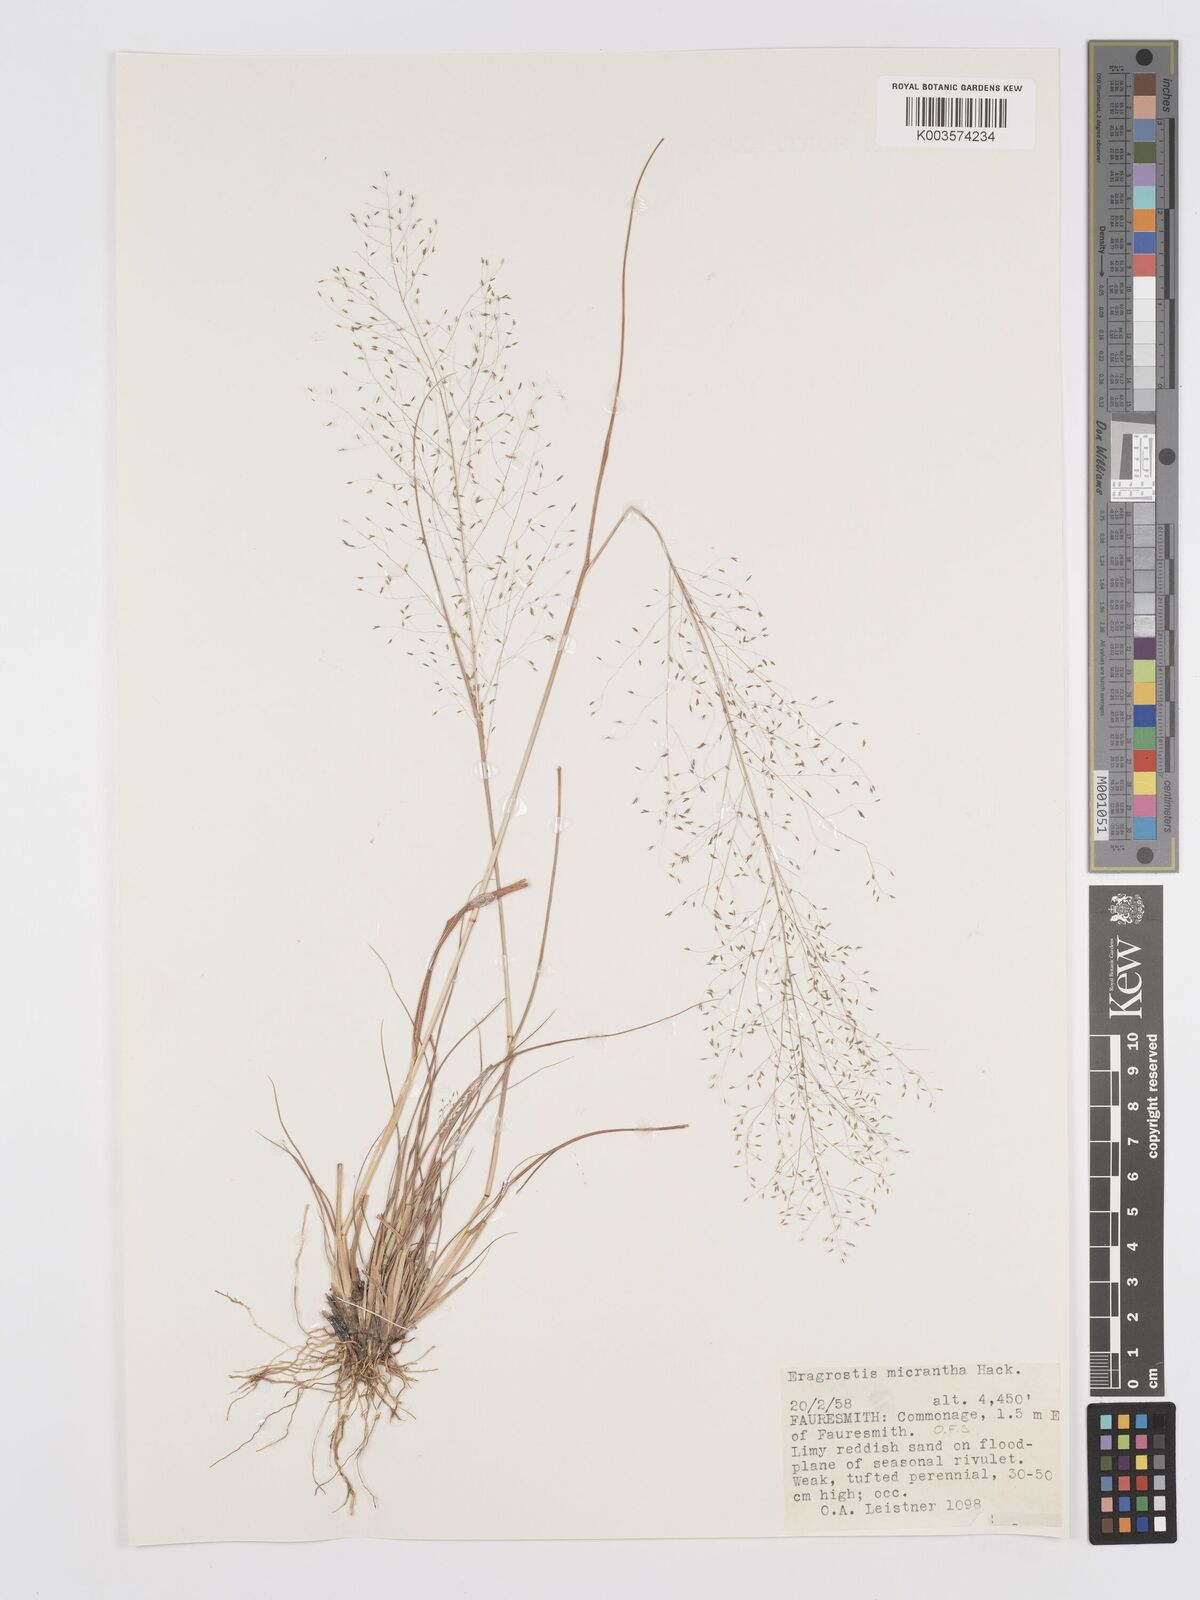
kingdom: Plantae
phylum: Tracheophyta
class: Liliopsida
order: Poales
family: Poaceae
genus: Eragrostis
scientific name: Eragrostis micrantha
